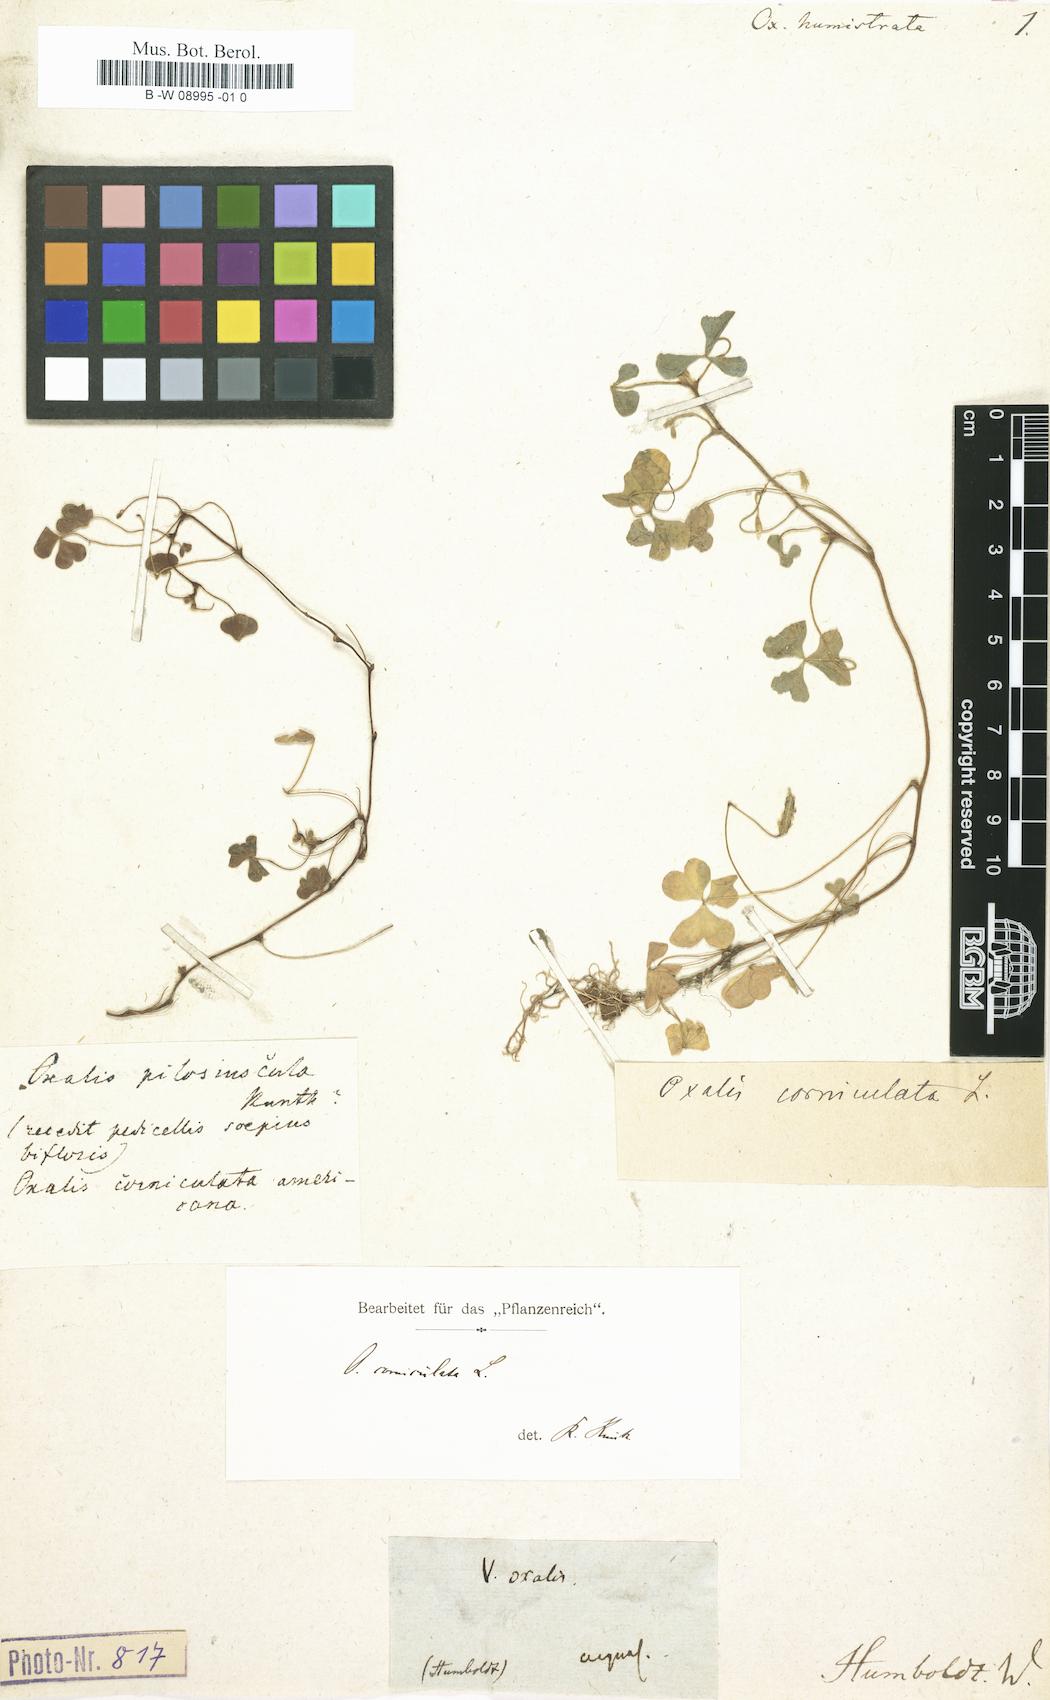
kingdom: Plantae
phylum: Tracheophyta
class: Magnoliopsida
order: Oxalidales
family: Oxalidaceae
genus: Oxalis
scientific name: Oxalis corniculata
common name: Procumbent yellow-sorrel
